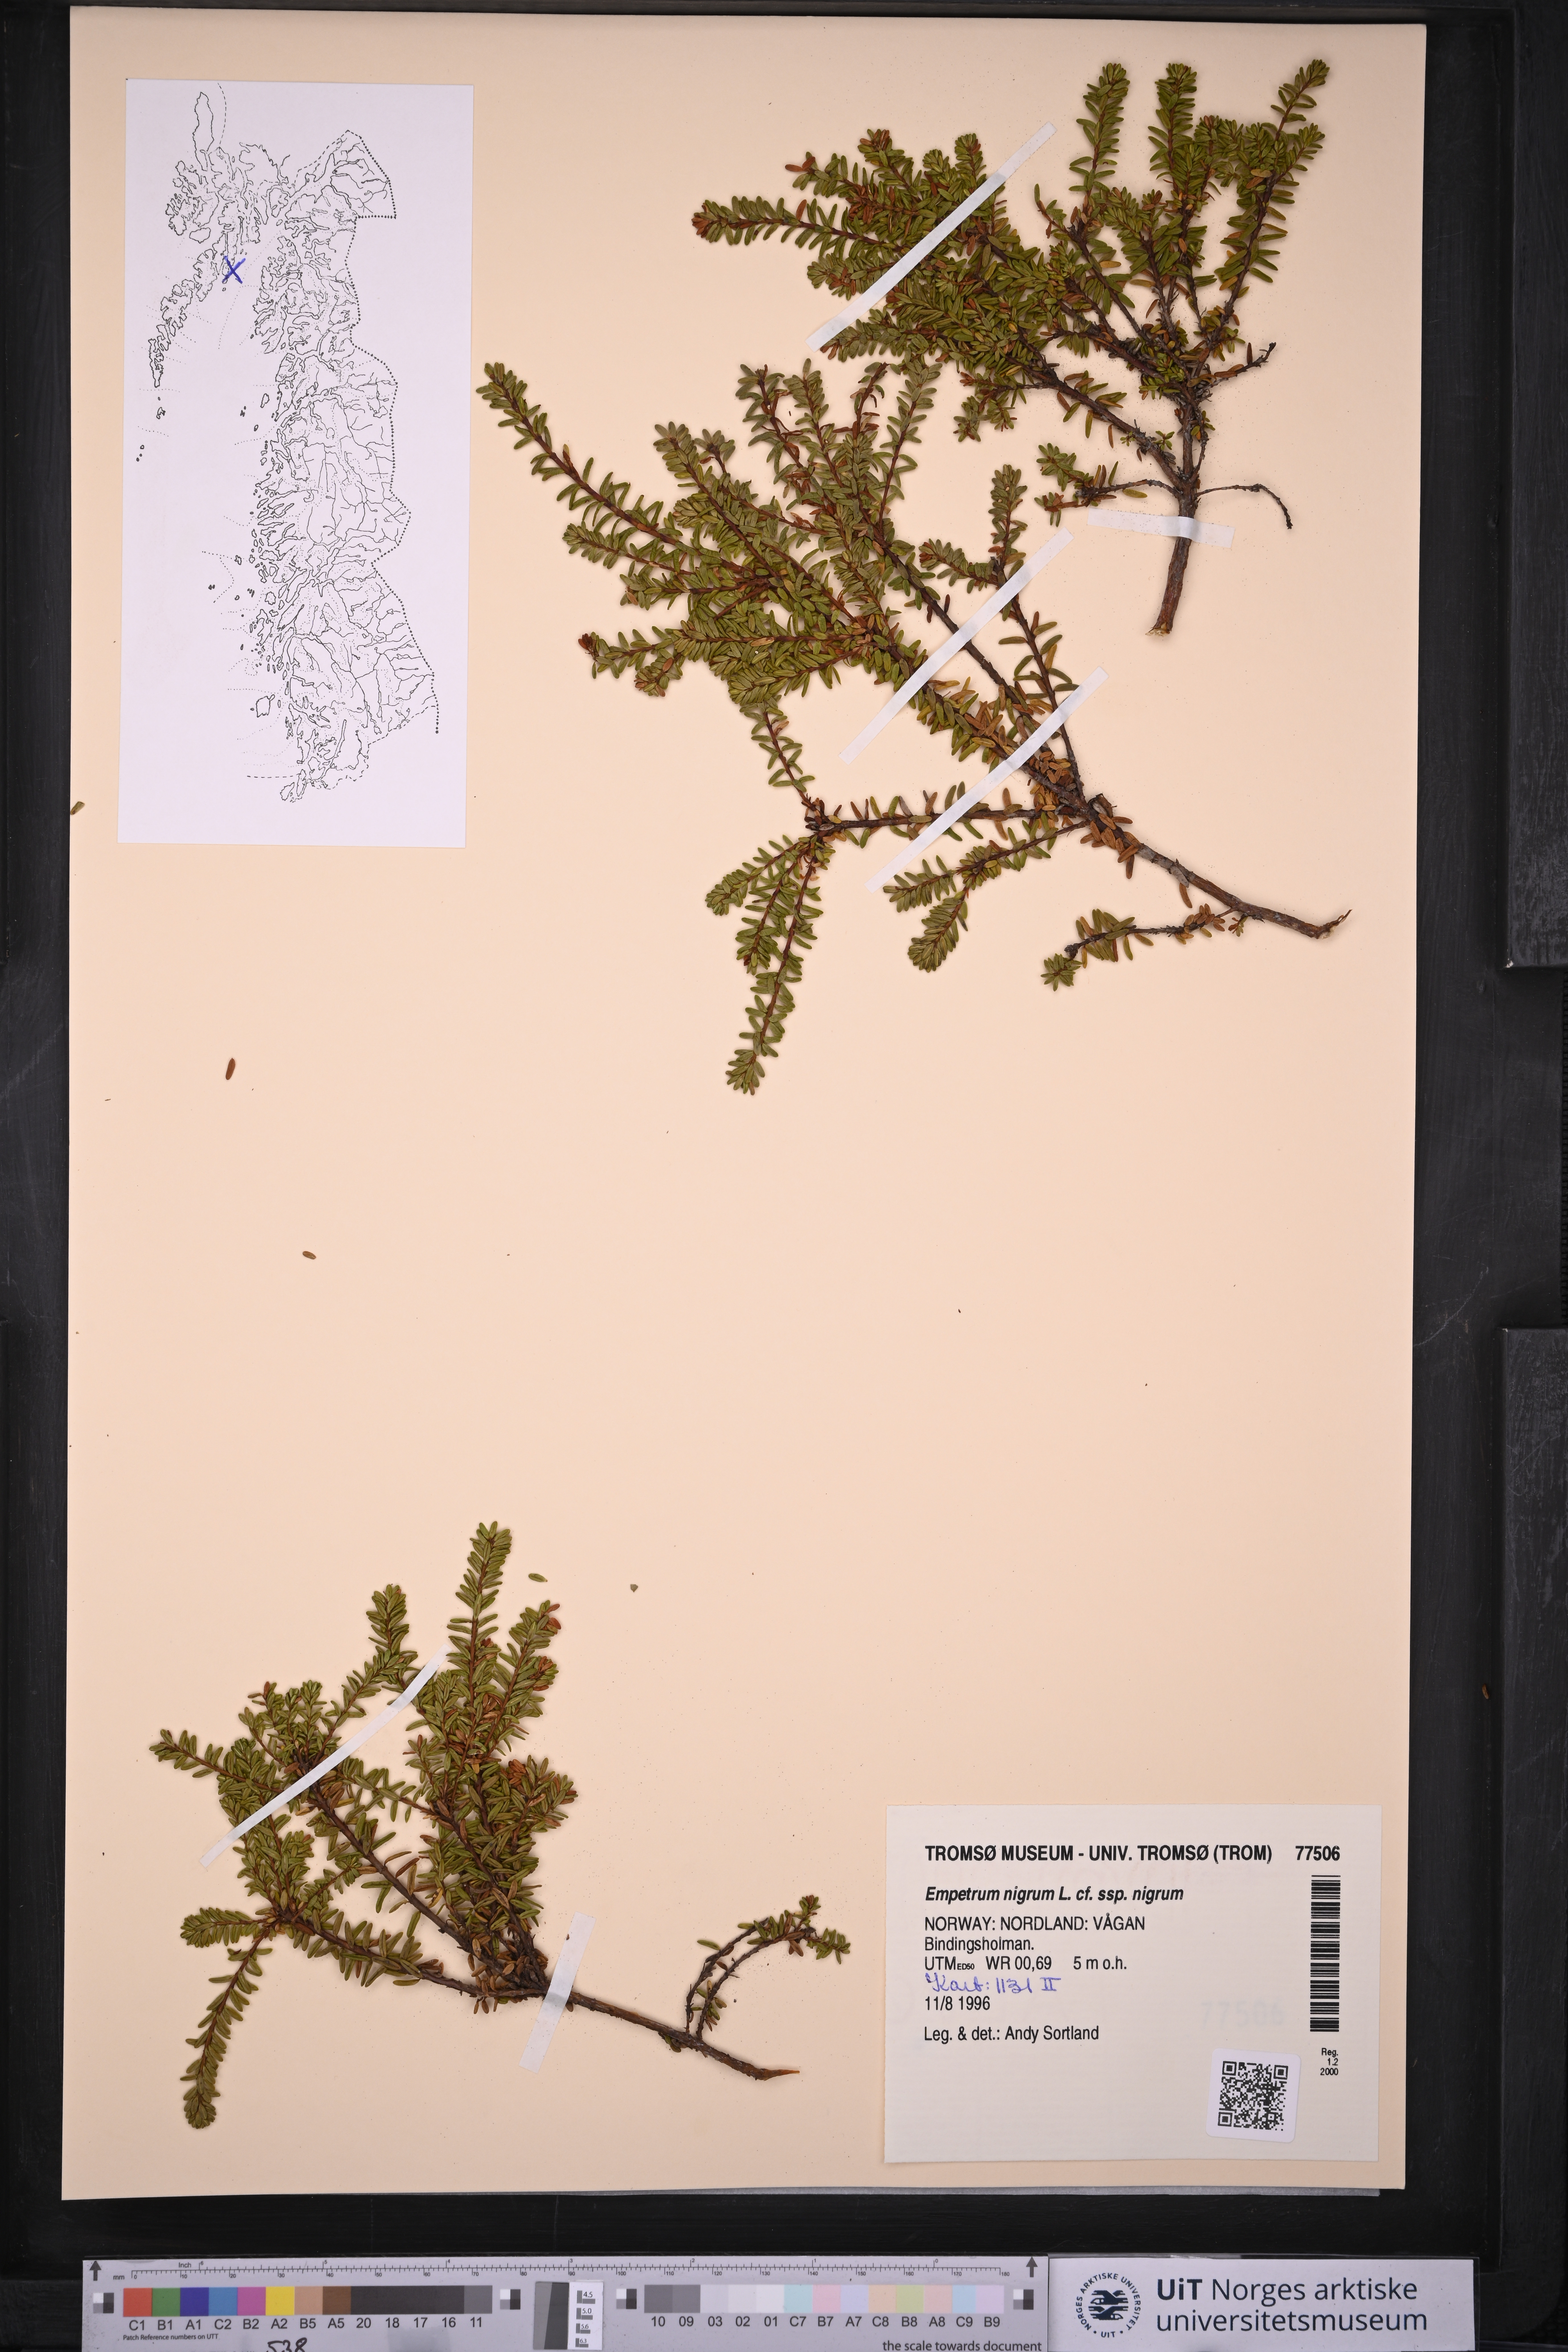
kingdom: Plantae
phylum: Tracheophyta
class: Magnoliopsida
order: Ericales
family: Ericaceae
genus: Empetrum
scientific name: Empetrum nigrum
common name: Black crowberry
